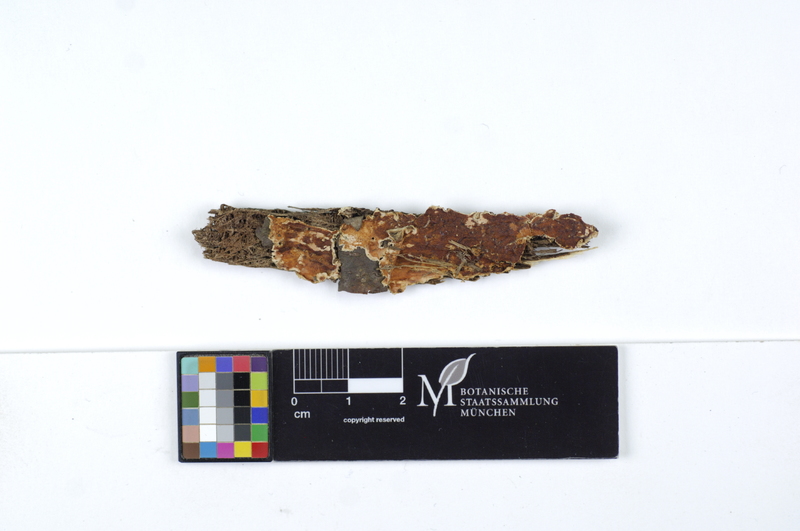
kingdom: Plantae
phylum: Tracheophyta
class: Magnoliopsida
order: Malvales
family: Malvaceae
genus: Tilia
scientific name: Tilia
